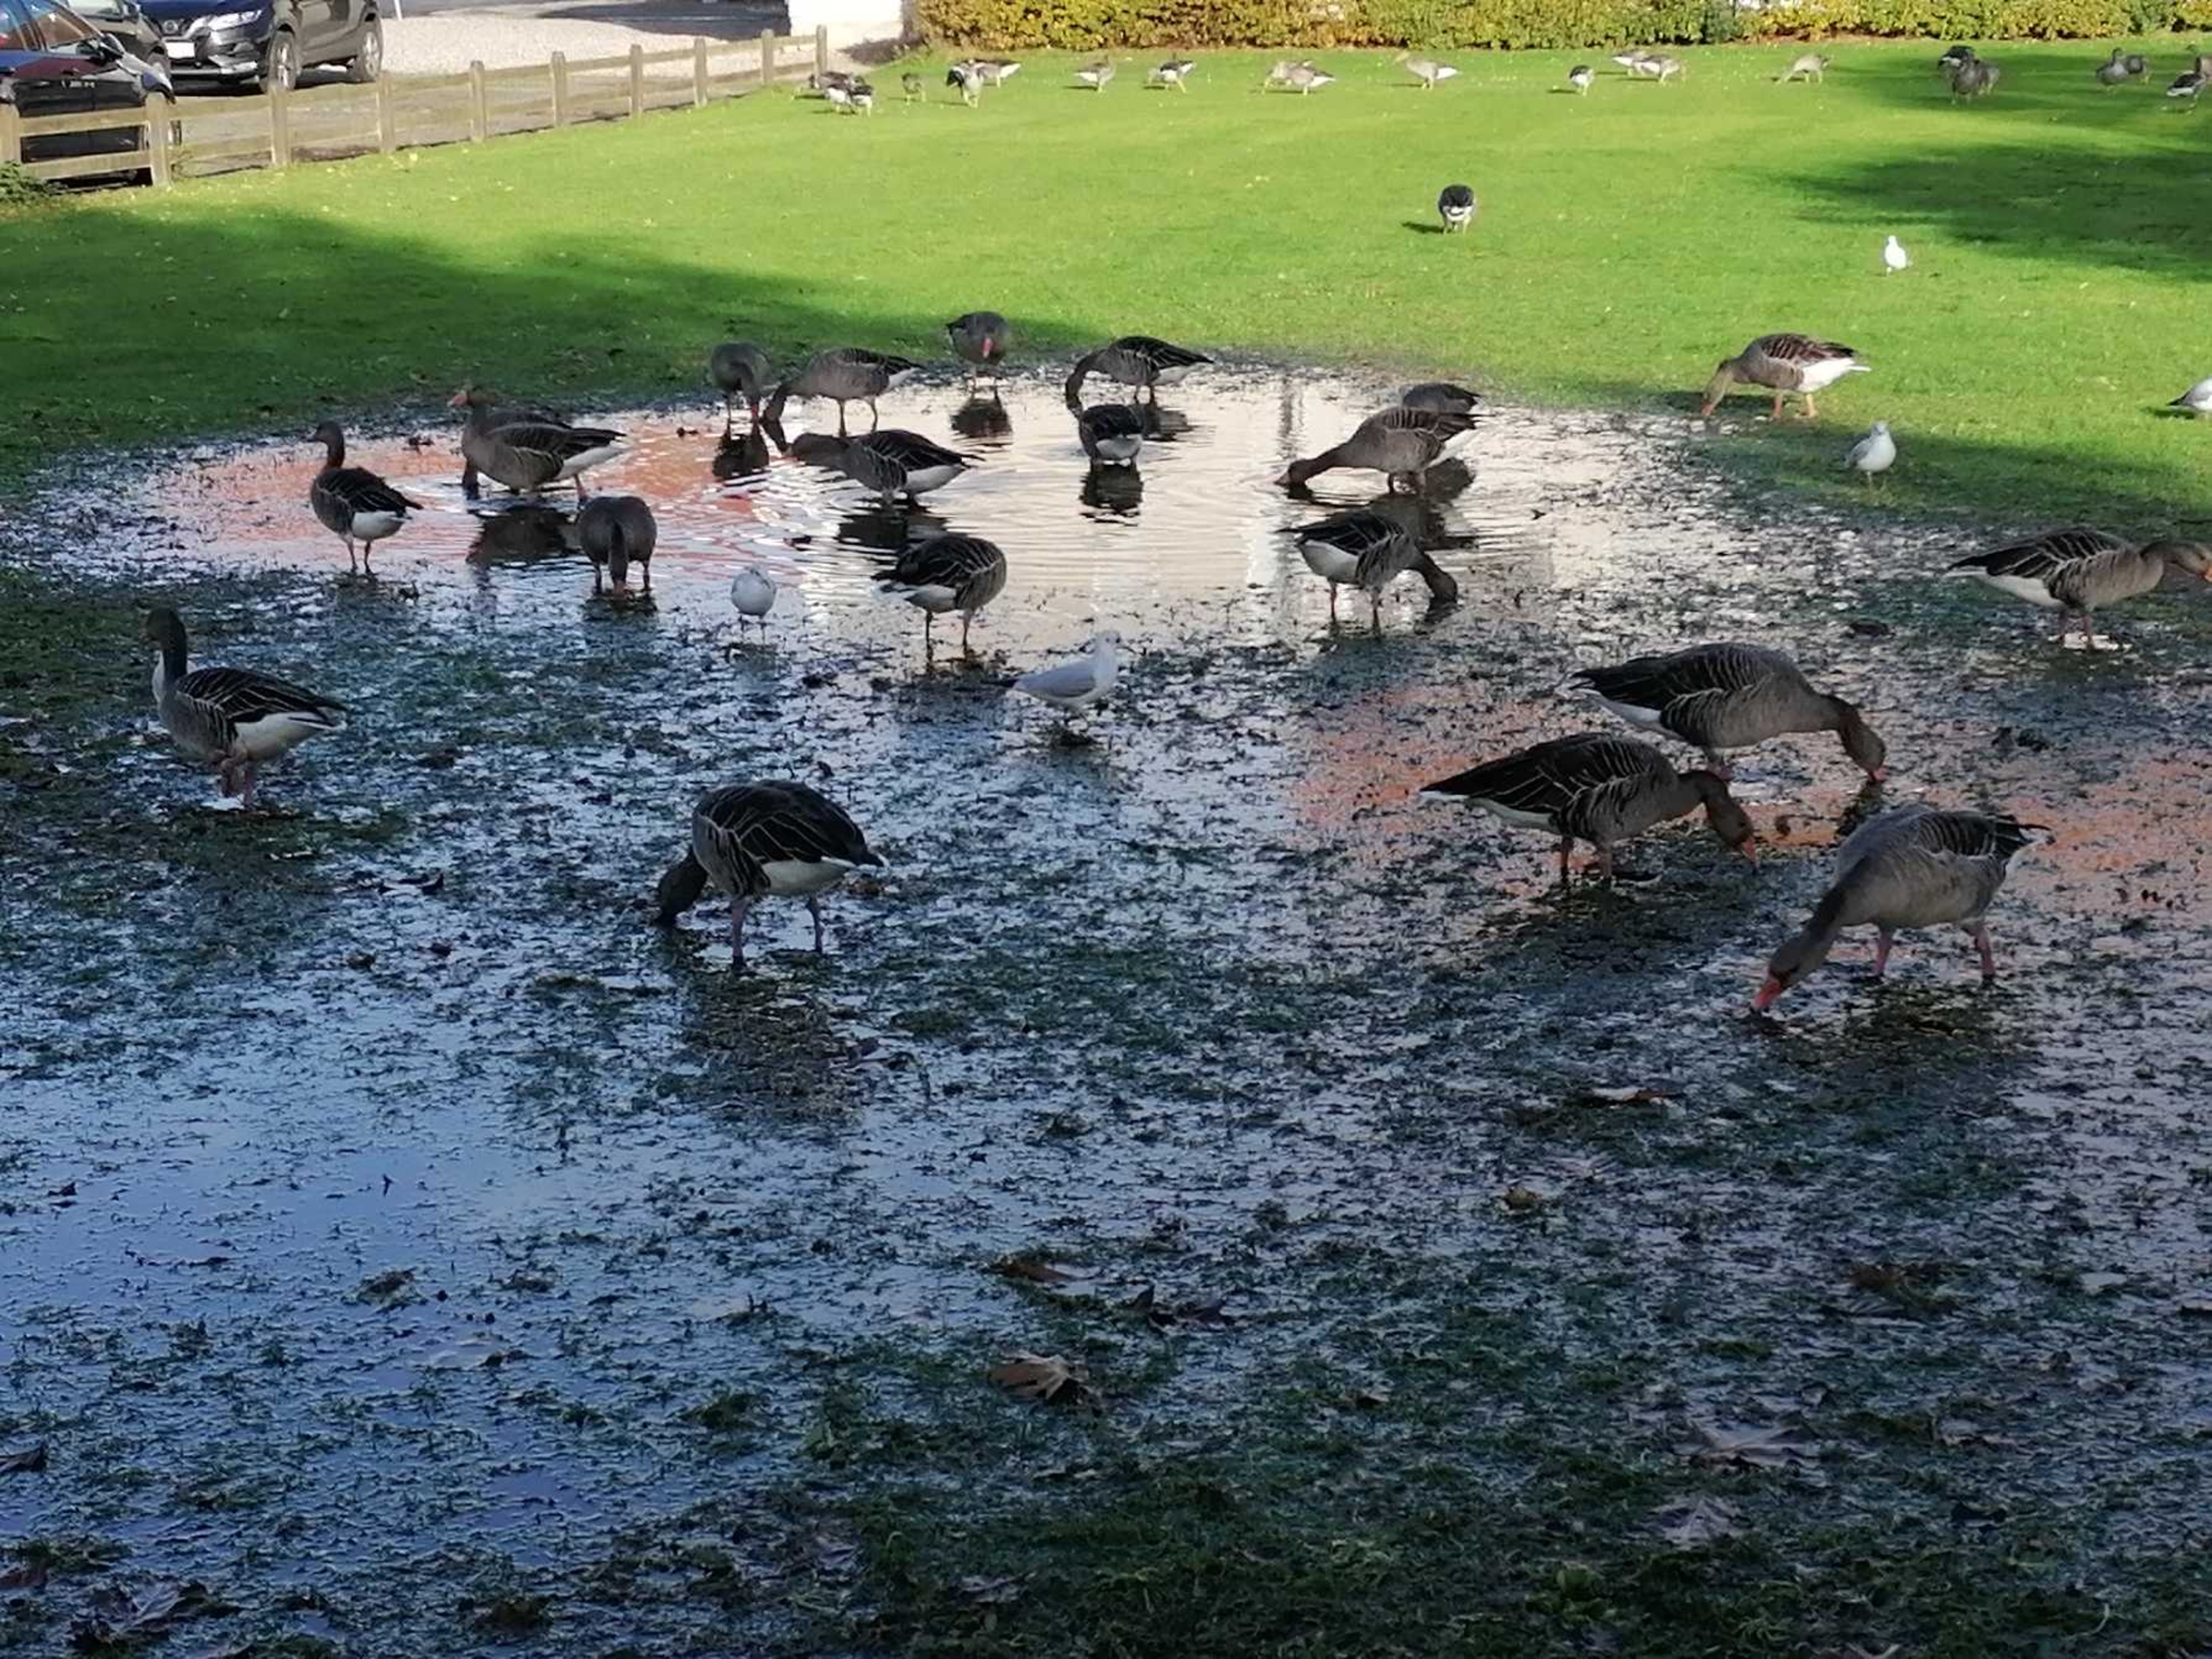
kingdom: Animalia
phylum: Chordata
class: Aves
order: Anseriformes
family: Anatidae
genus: Anser
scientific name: Anser anser
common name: Grågås
